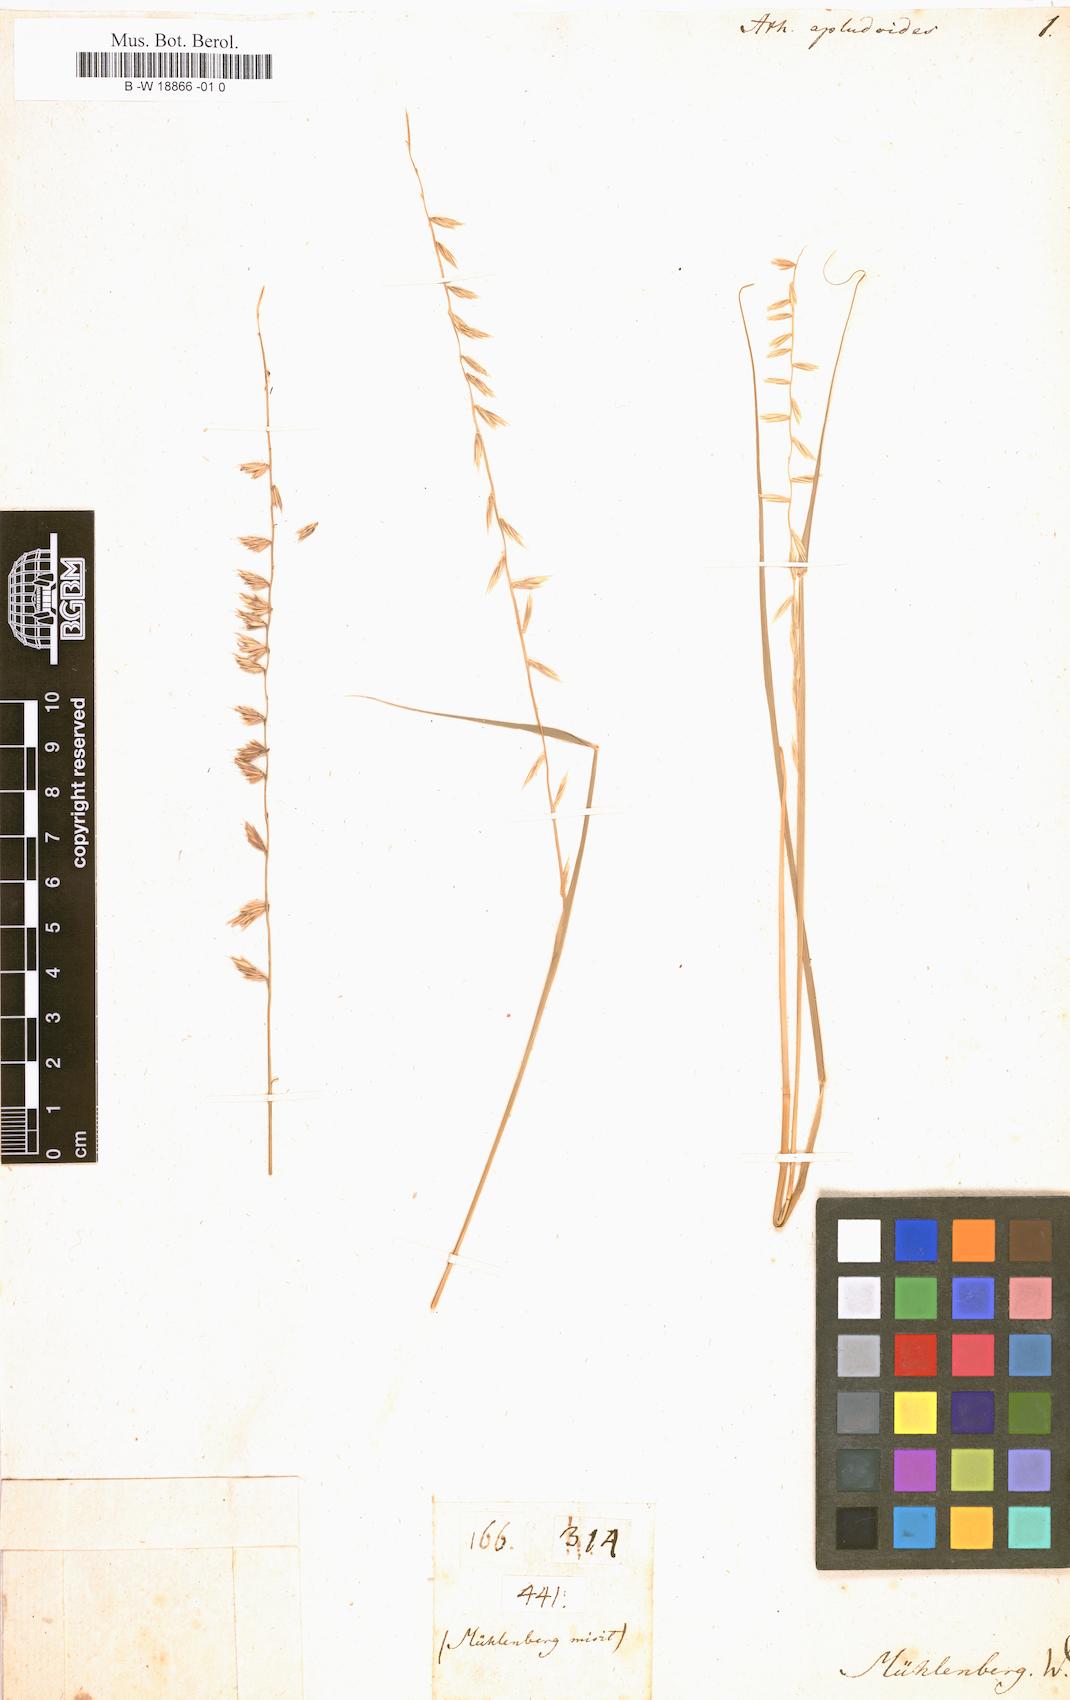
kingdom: Plantae
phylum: Tracheophyta
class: Liliopsida
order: Poales
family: Poaceae
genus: Bouteloua
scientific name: Bouteloua curtipendula
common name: Side-oats grama
